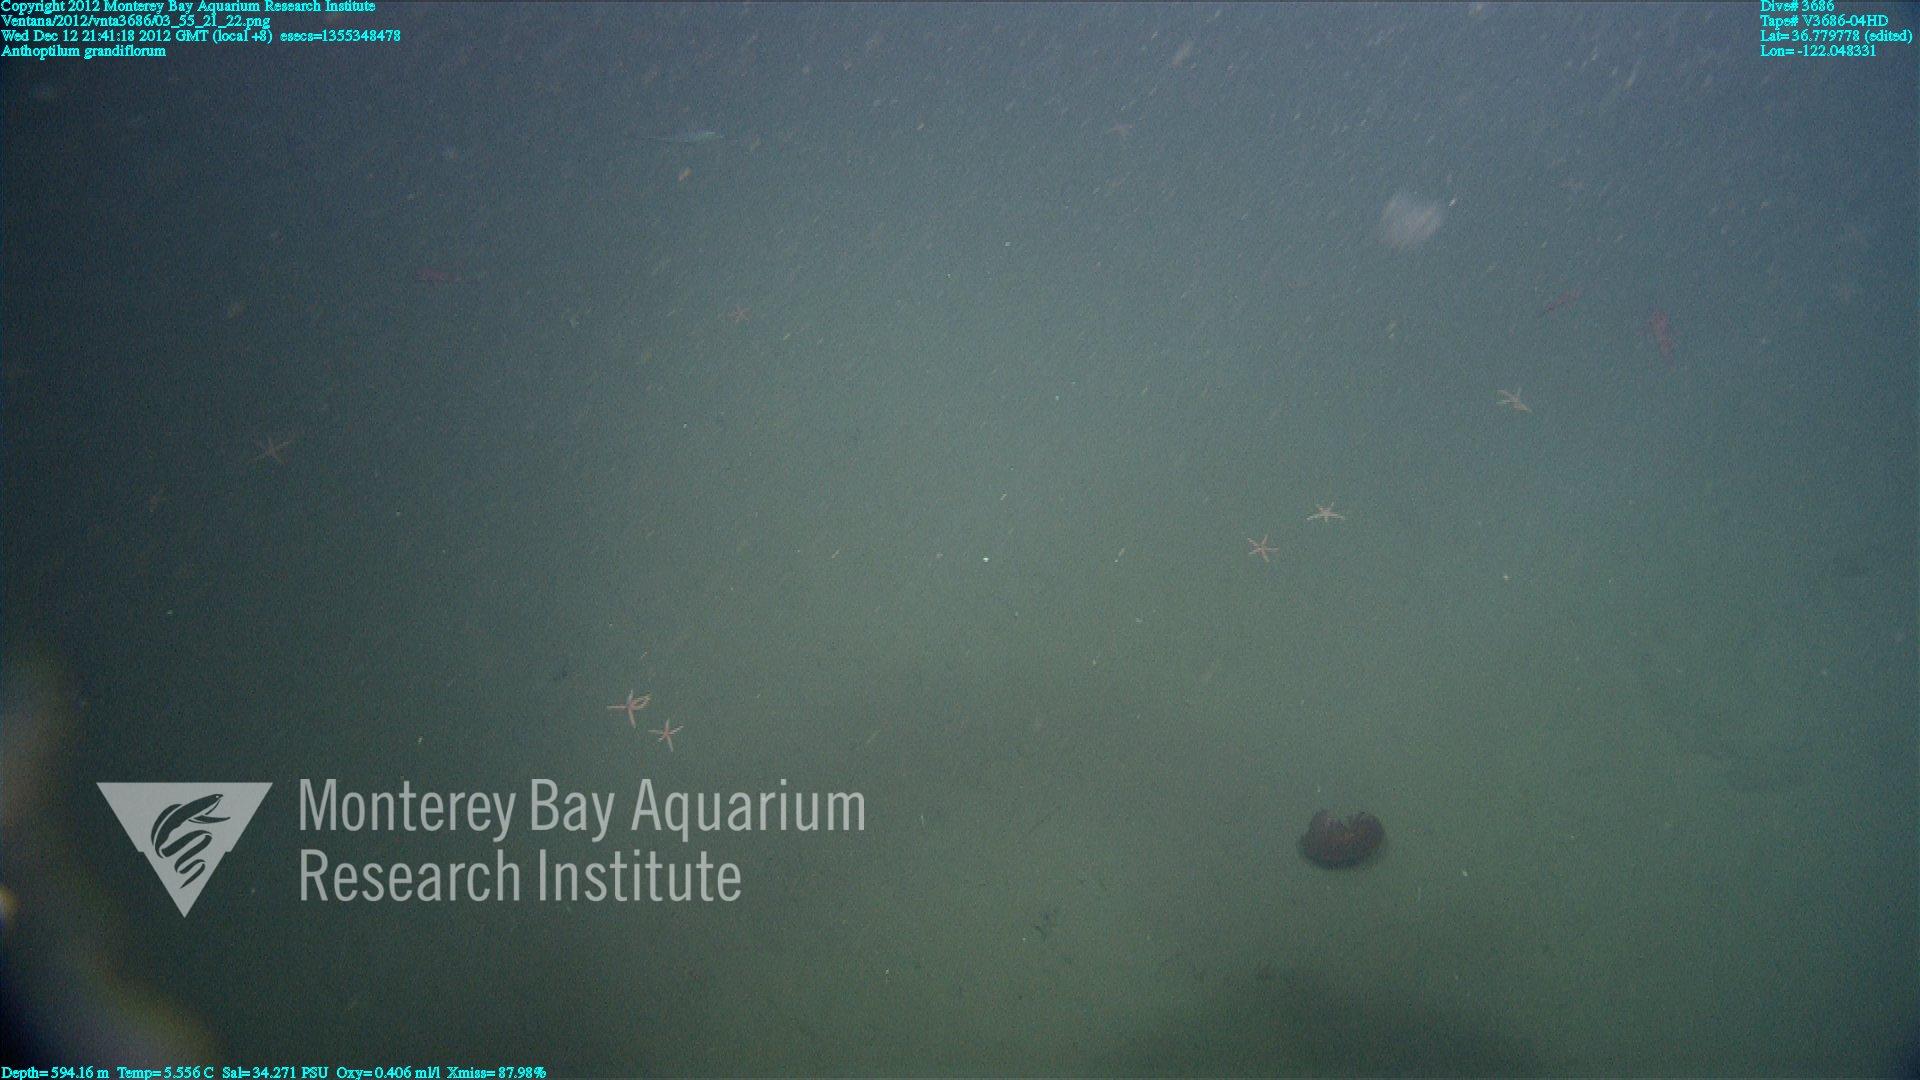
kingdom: Animalia
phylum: Cnidaria
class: Anthozoa
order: Scleralcyonacea
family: Anthoptilidae
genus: Anthoptilum
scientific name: Anthoptilum grandiflorum
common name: Full-flowered sea pen
